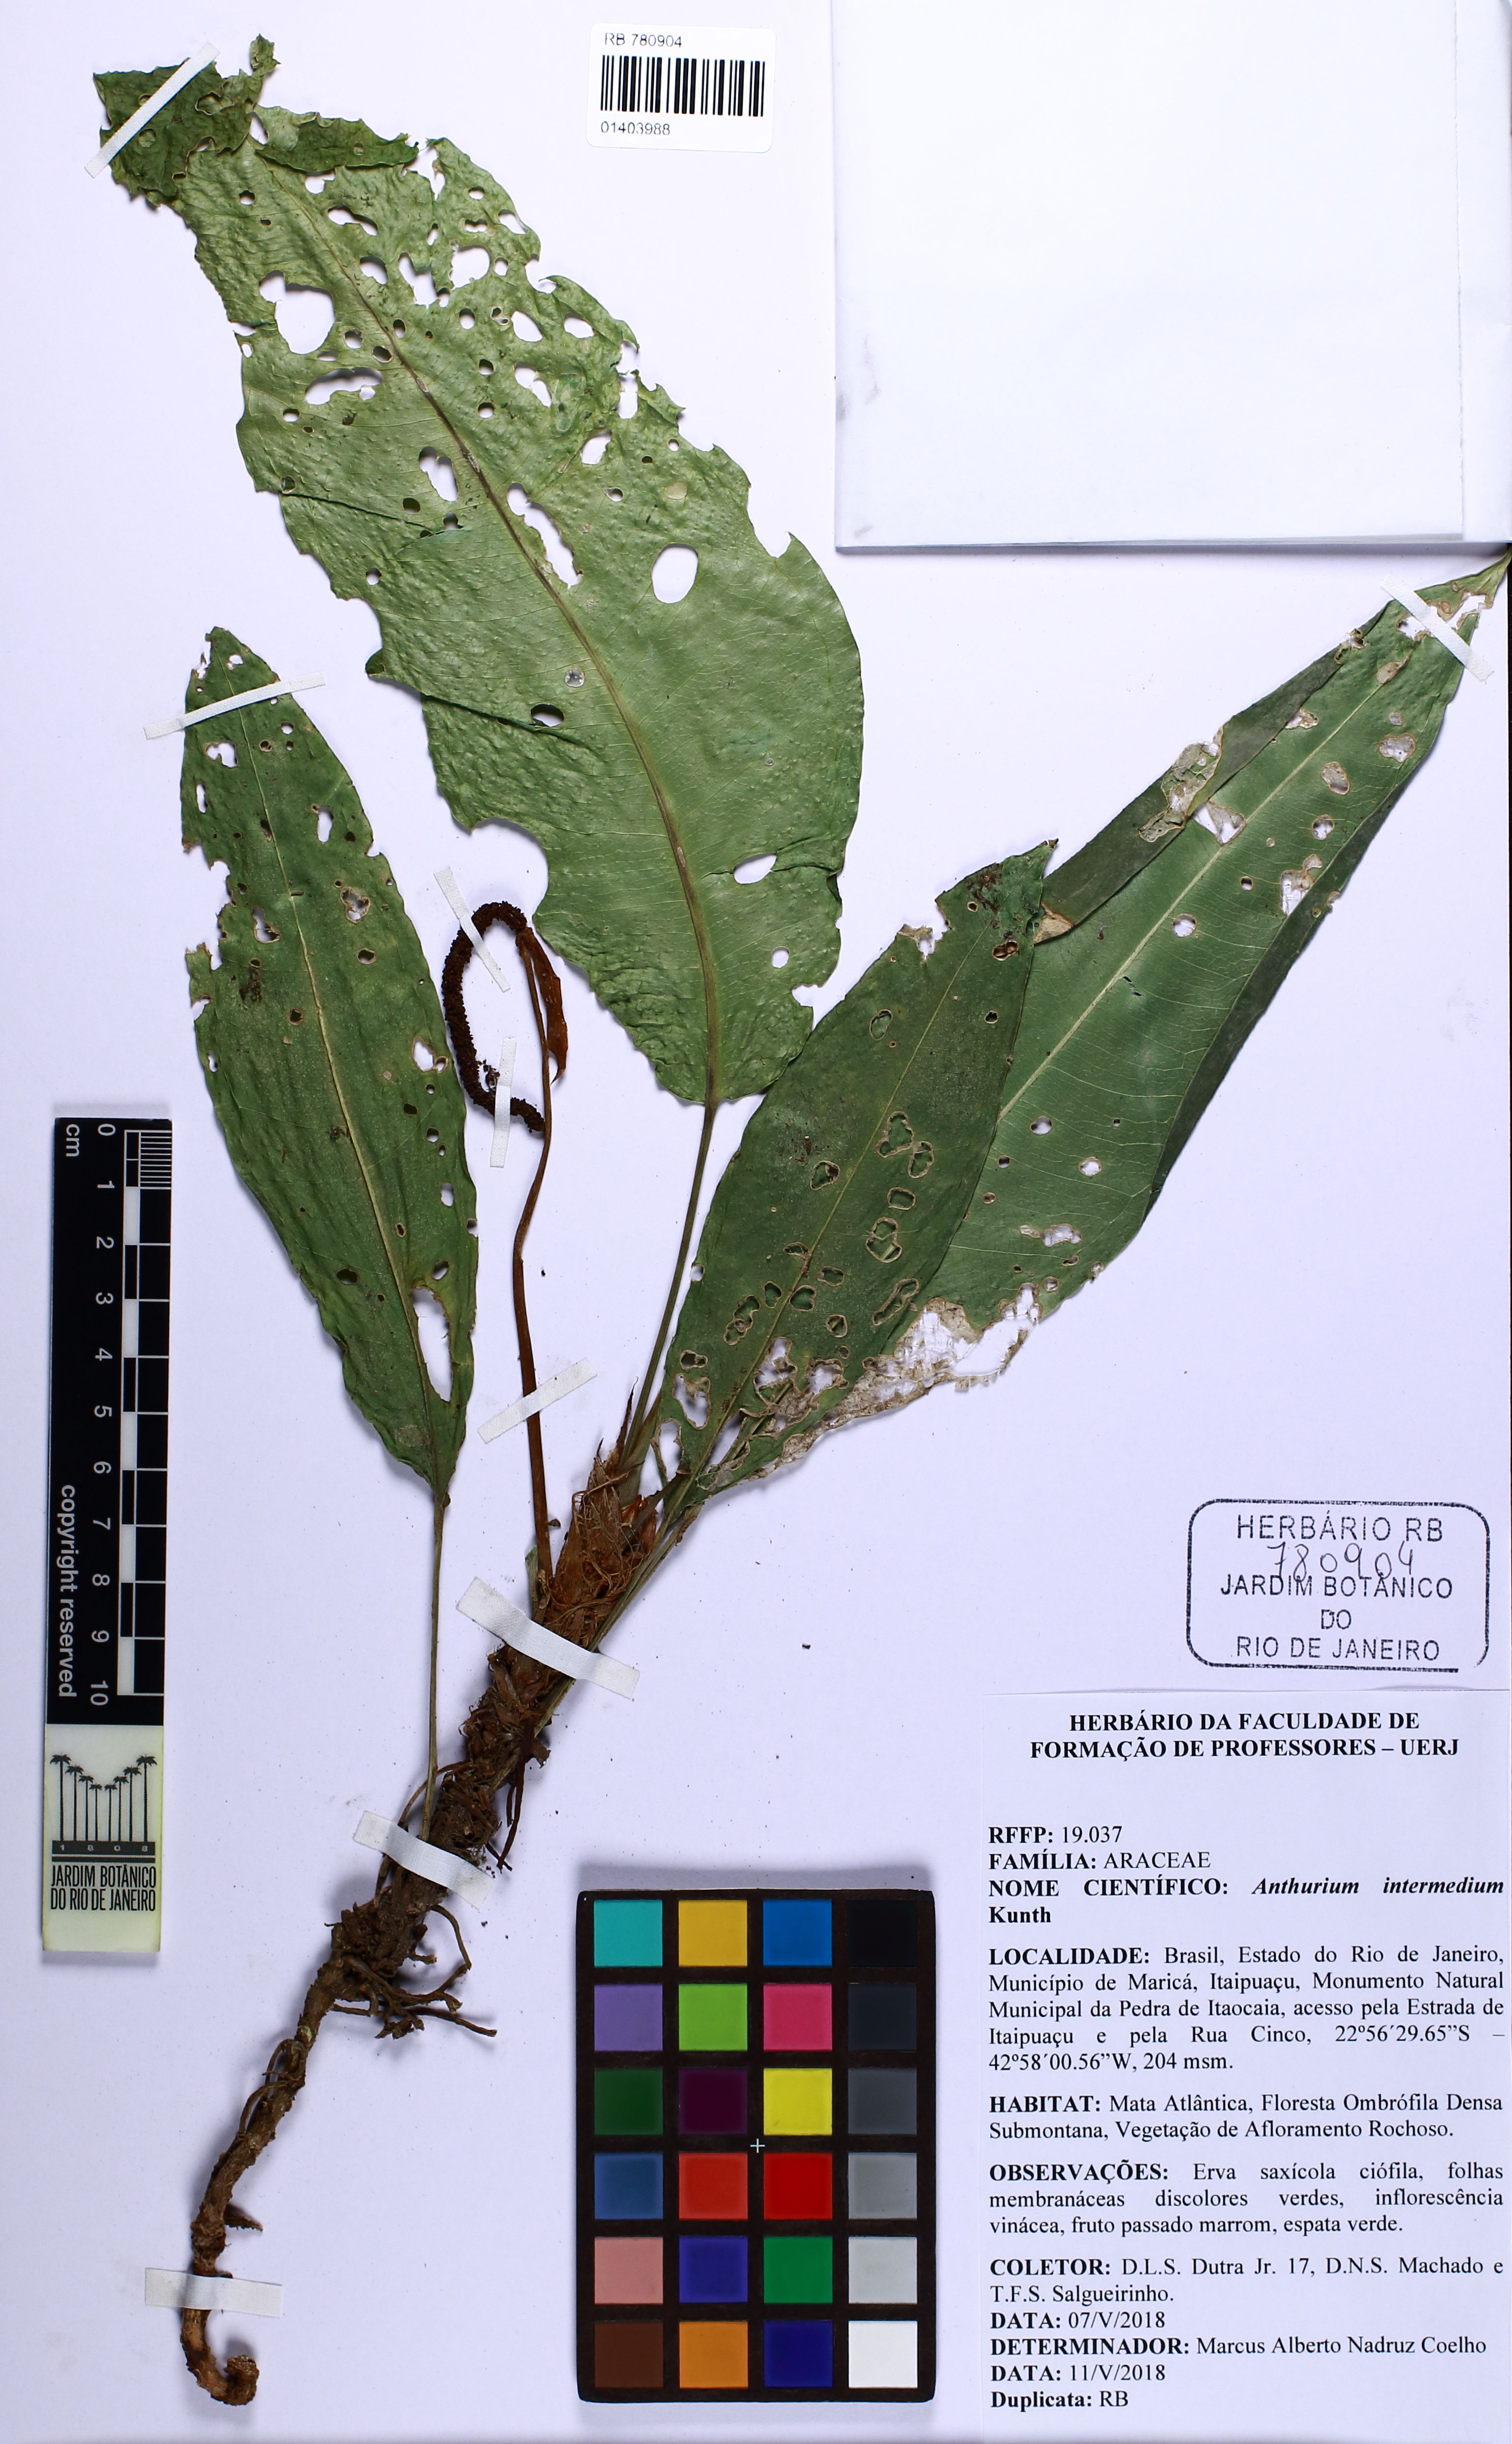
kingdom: Plantae
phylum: Tracheophyta
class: Liliopsida
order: Alismatales
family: Araceae
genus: Anthurium
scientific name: Anthurium intermedium
